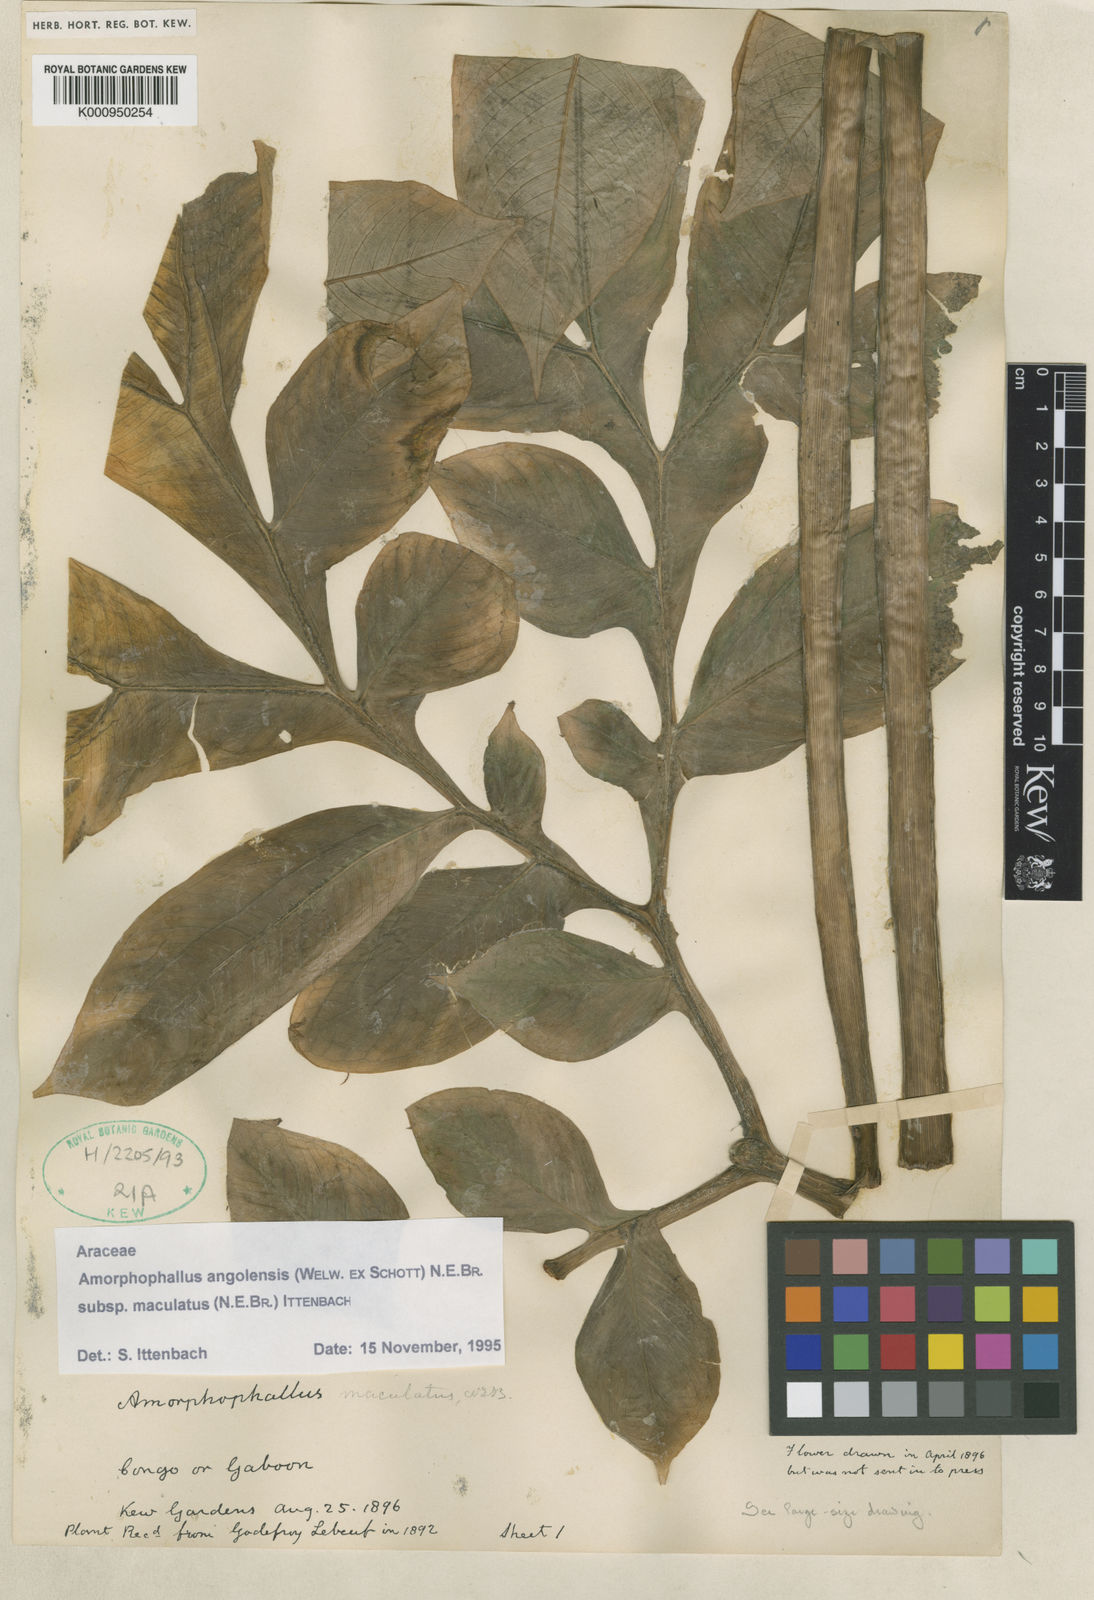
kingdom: Plantae
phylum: Tracheophyta
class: Liliopsida
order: Alismatales
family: Araceae
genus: Amorphophallus
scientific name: Amorphophallus angolensis
